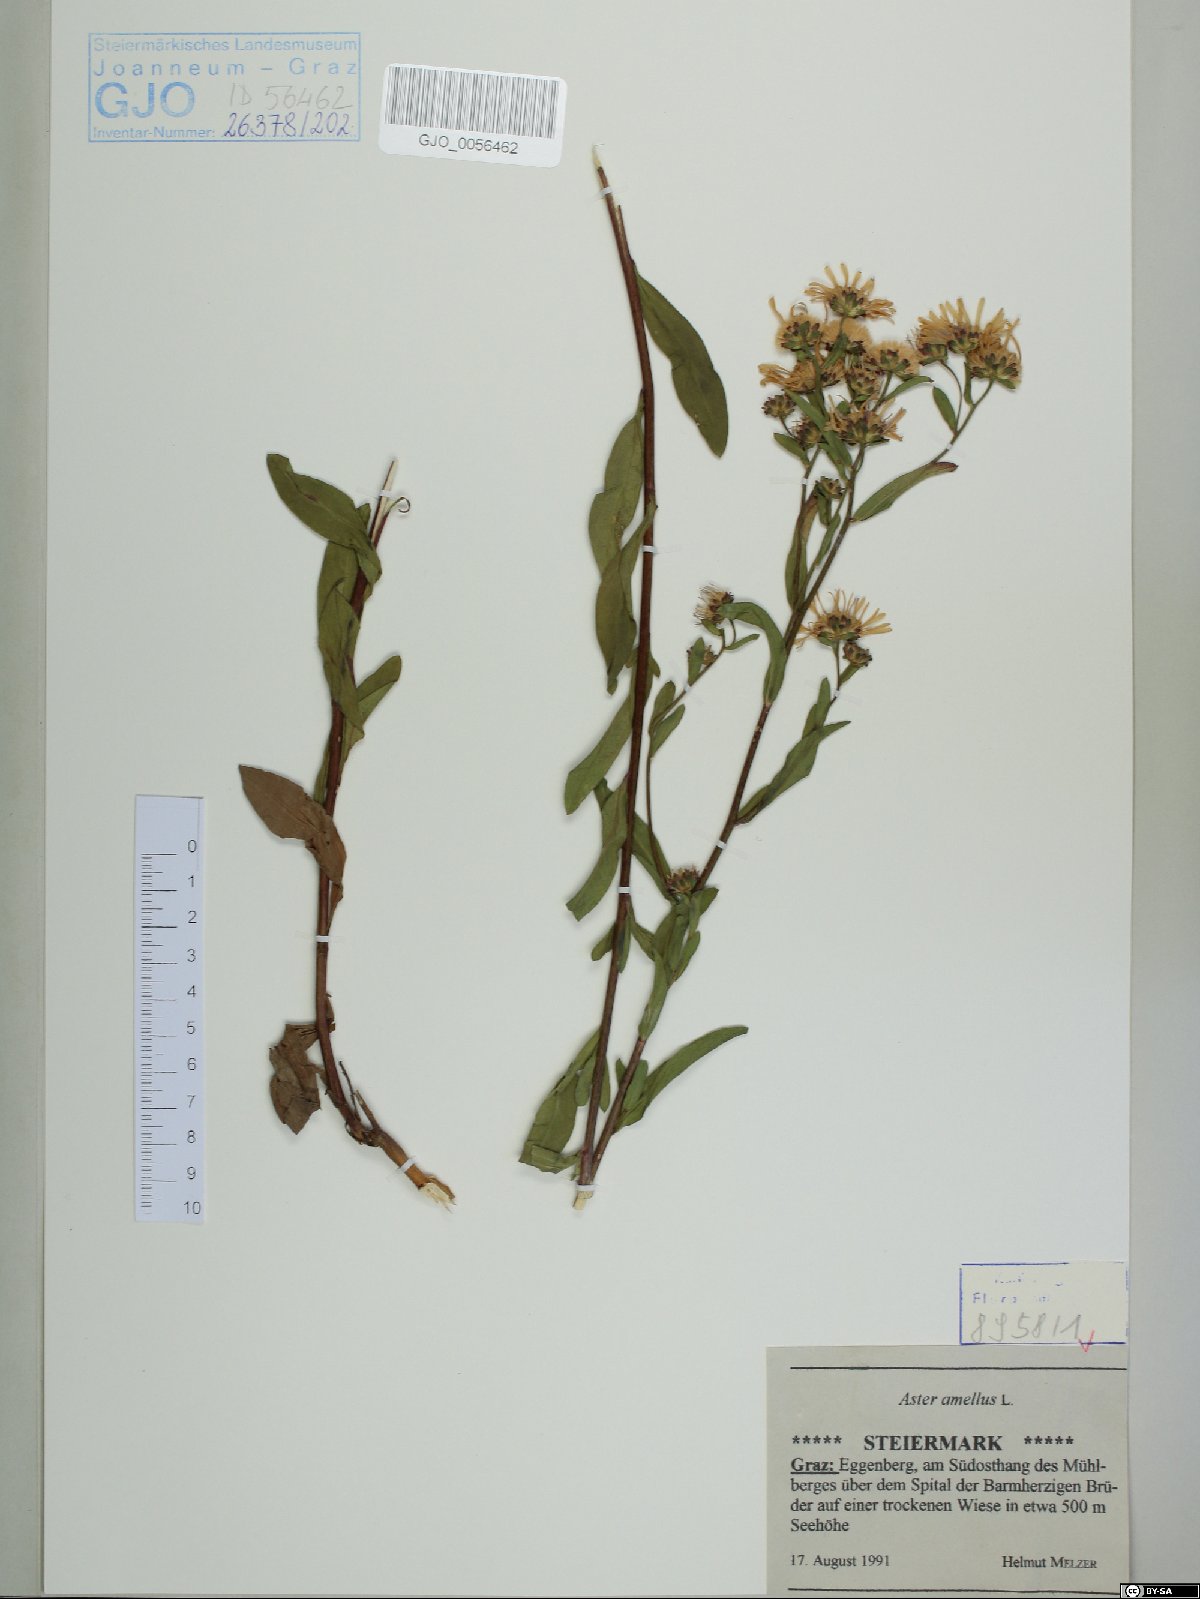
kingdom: Plantae
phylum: Tracheophyta
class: Magnoliopsida
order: Asterales
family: Asteraceae
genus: Aster
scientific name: Aster amellus
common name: European michaelmas daisy
